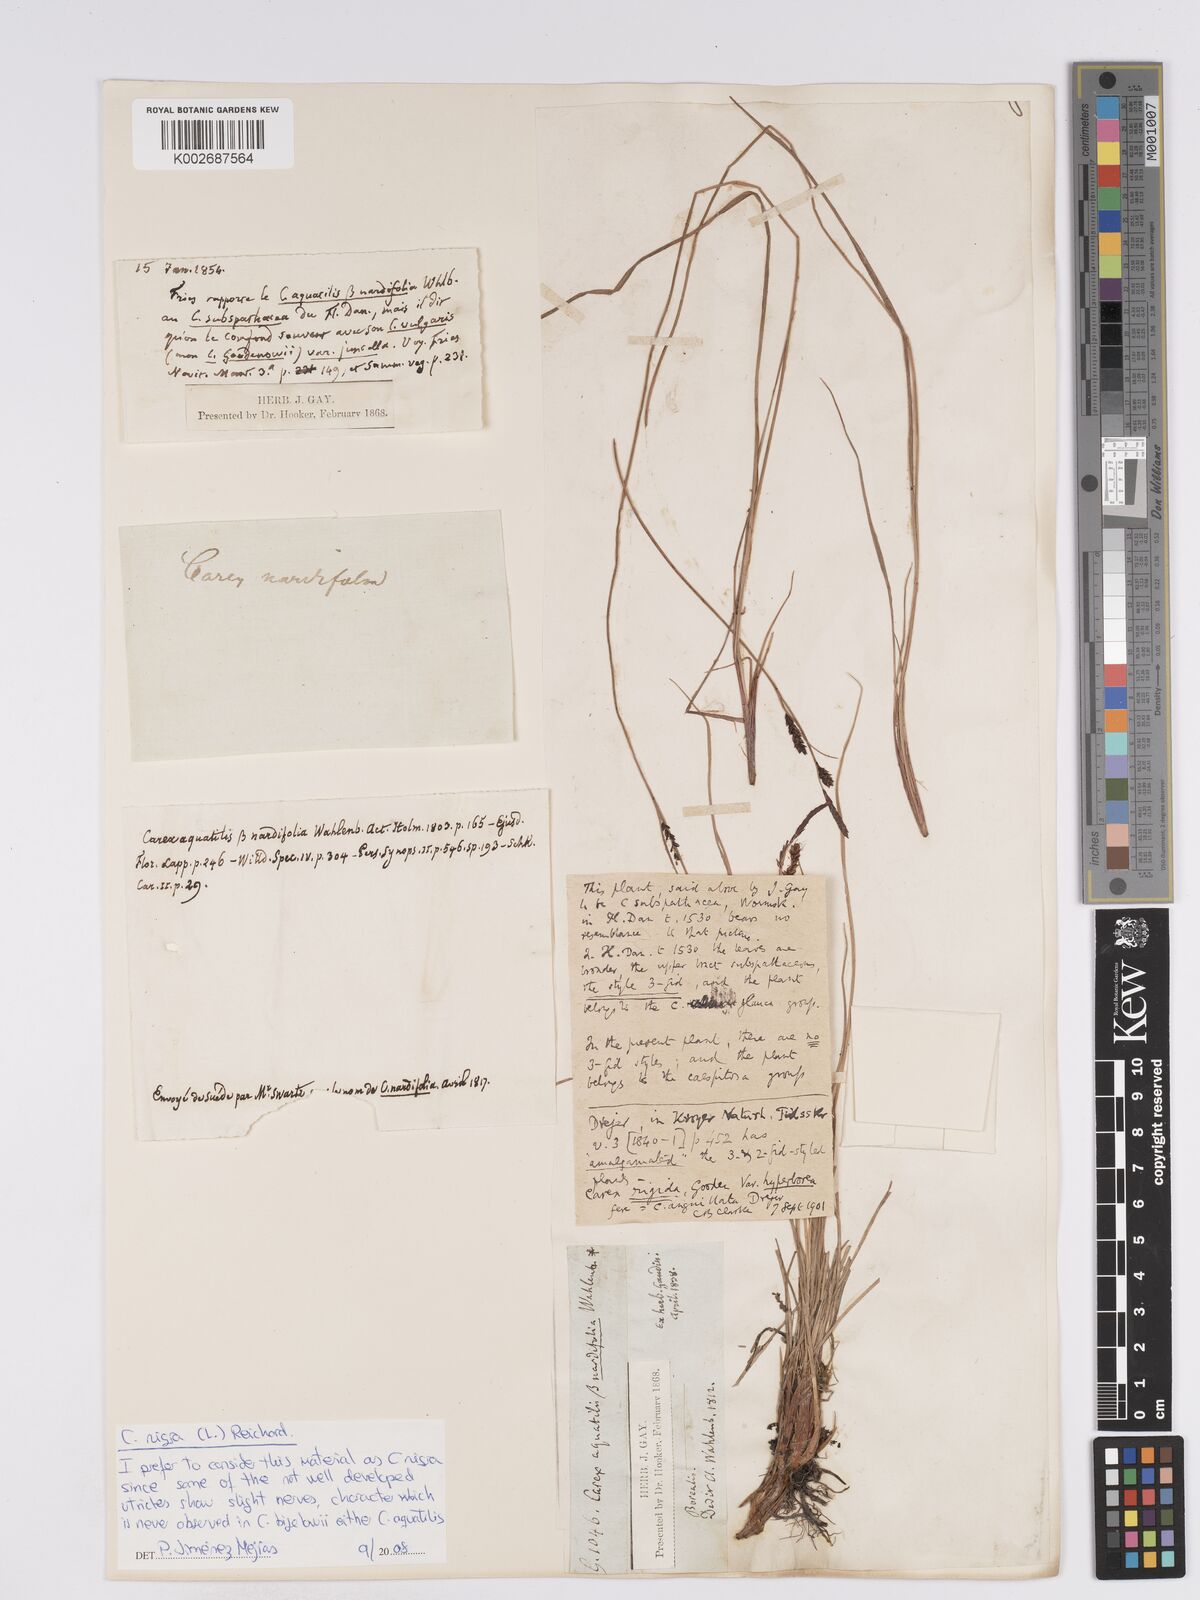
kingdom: Plantae
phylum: Tracheophyta
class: Liliopsida
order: Poales
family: Cyperaceae
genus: Carex
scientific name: Carex nigra
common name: Common sedge
